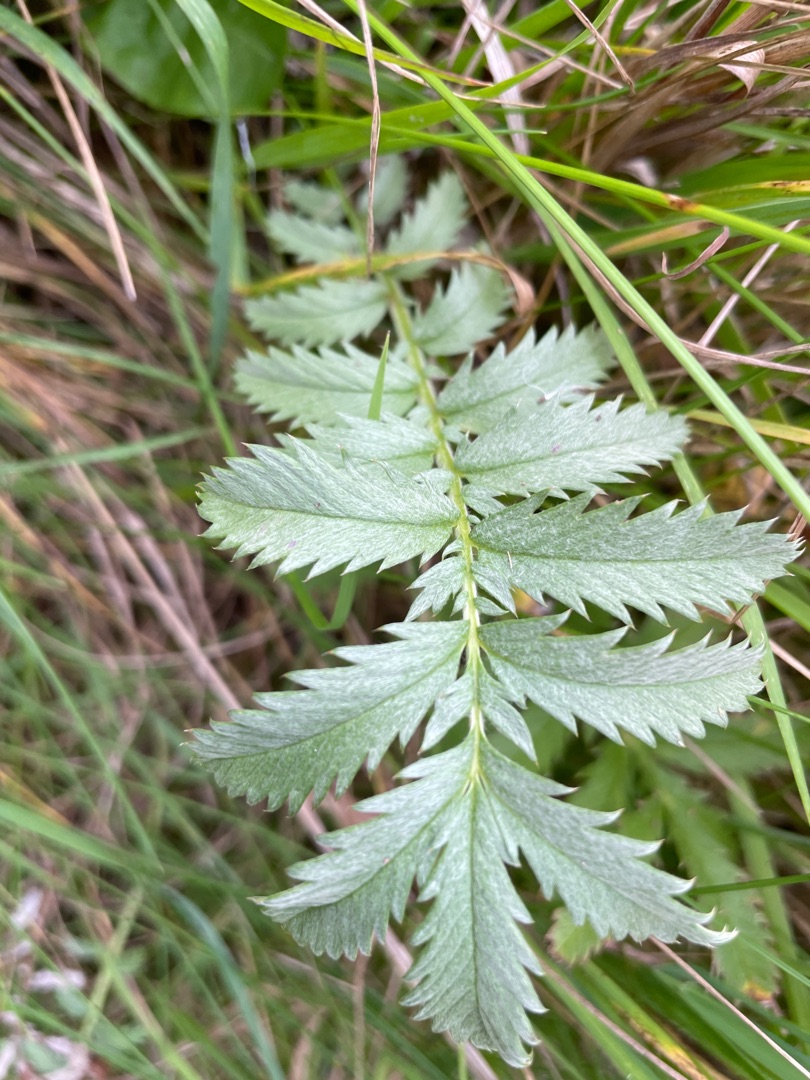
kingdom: Plantae
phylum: Tracheophyta
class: Magnoliopsida
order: Rosales
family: Rosaceae
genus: Argentina
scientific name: Argentina anserina
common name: Gåsepotentil
